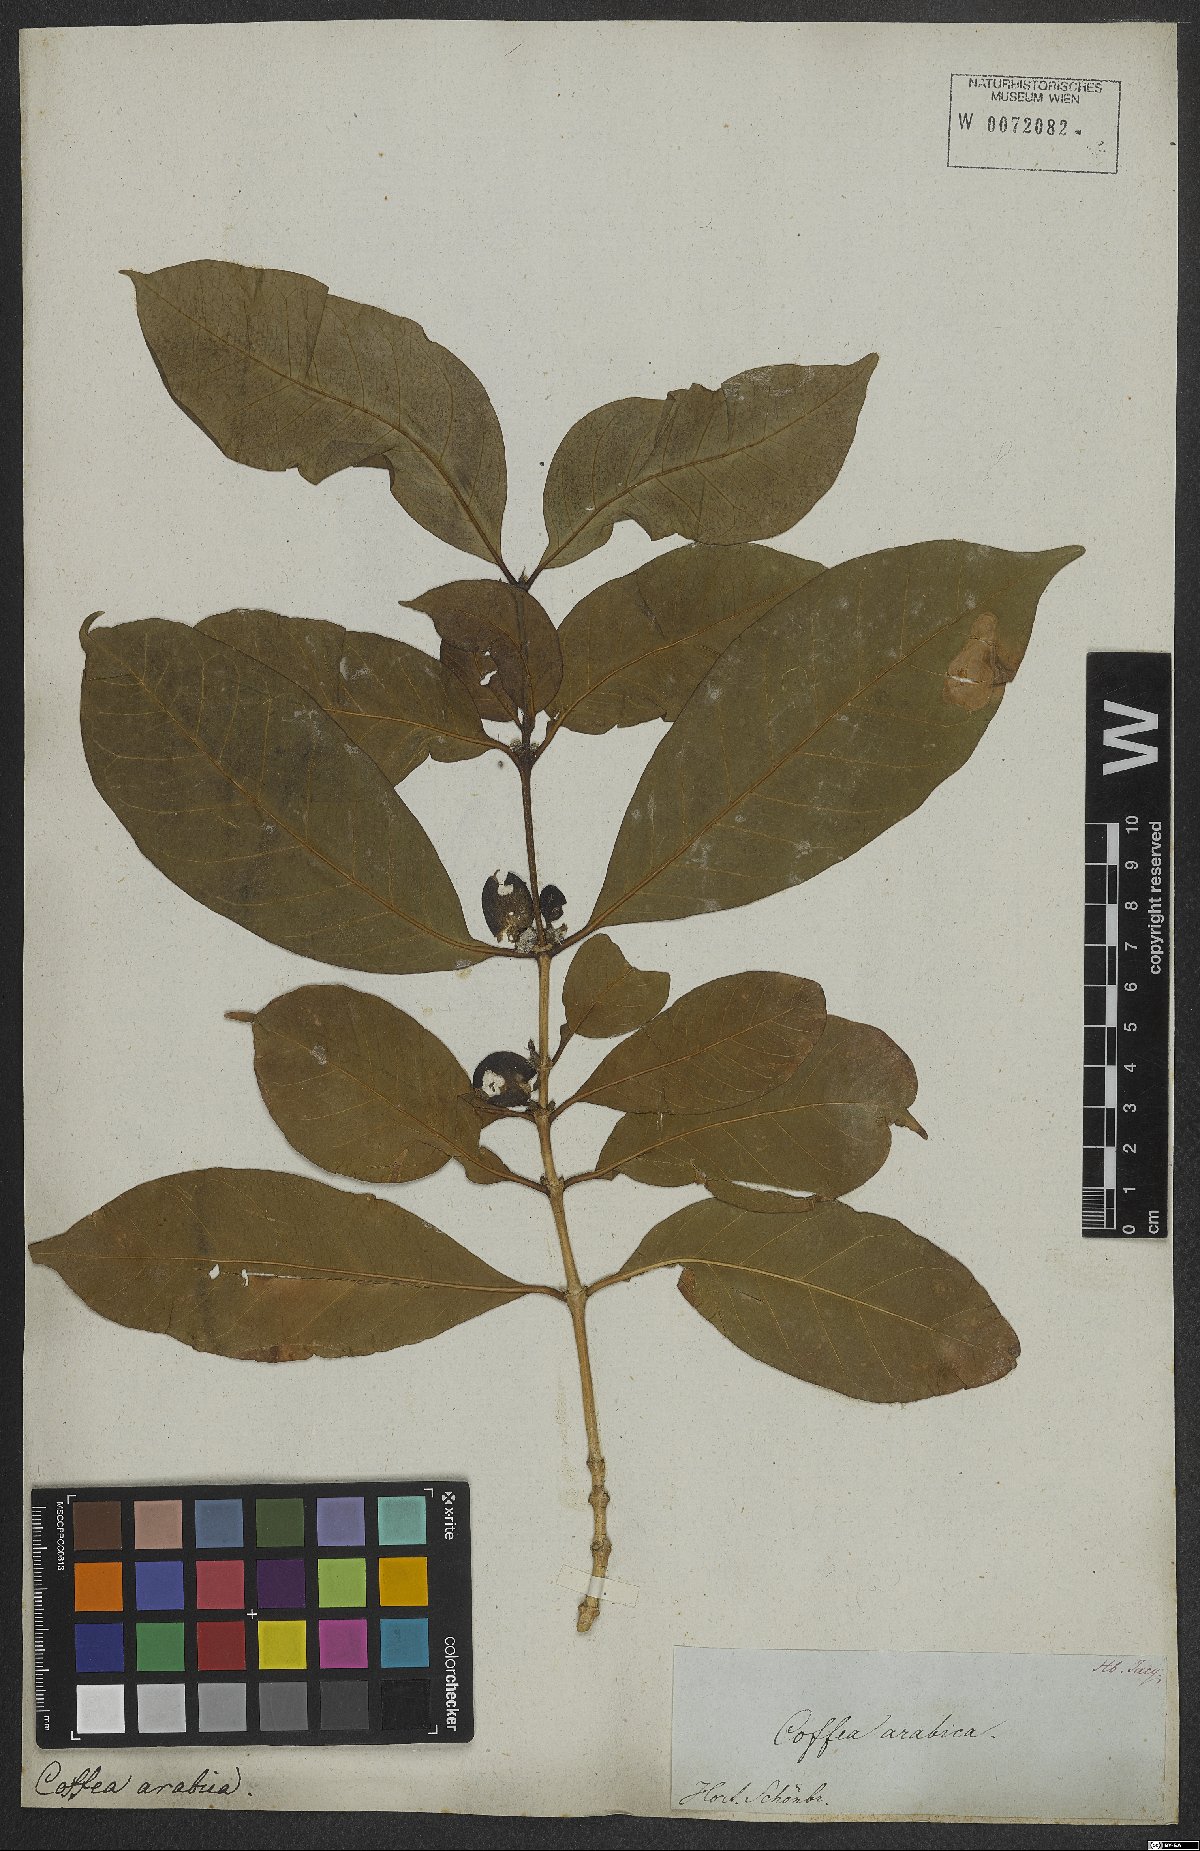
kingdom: Plantae
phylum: Tracheophyta
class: Magnoliopsida
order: Gentianales
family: Rubiaceae
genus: Coffea
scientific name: Coffea arabica
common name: Coffee
